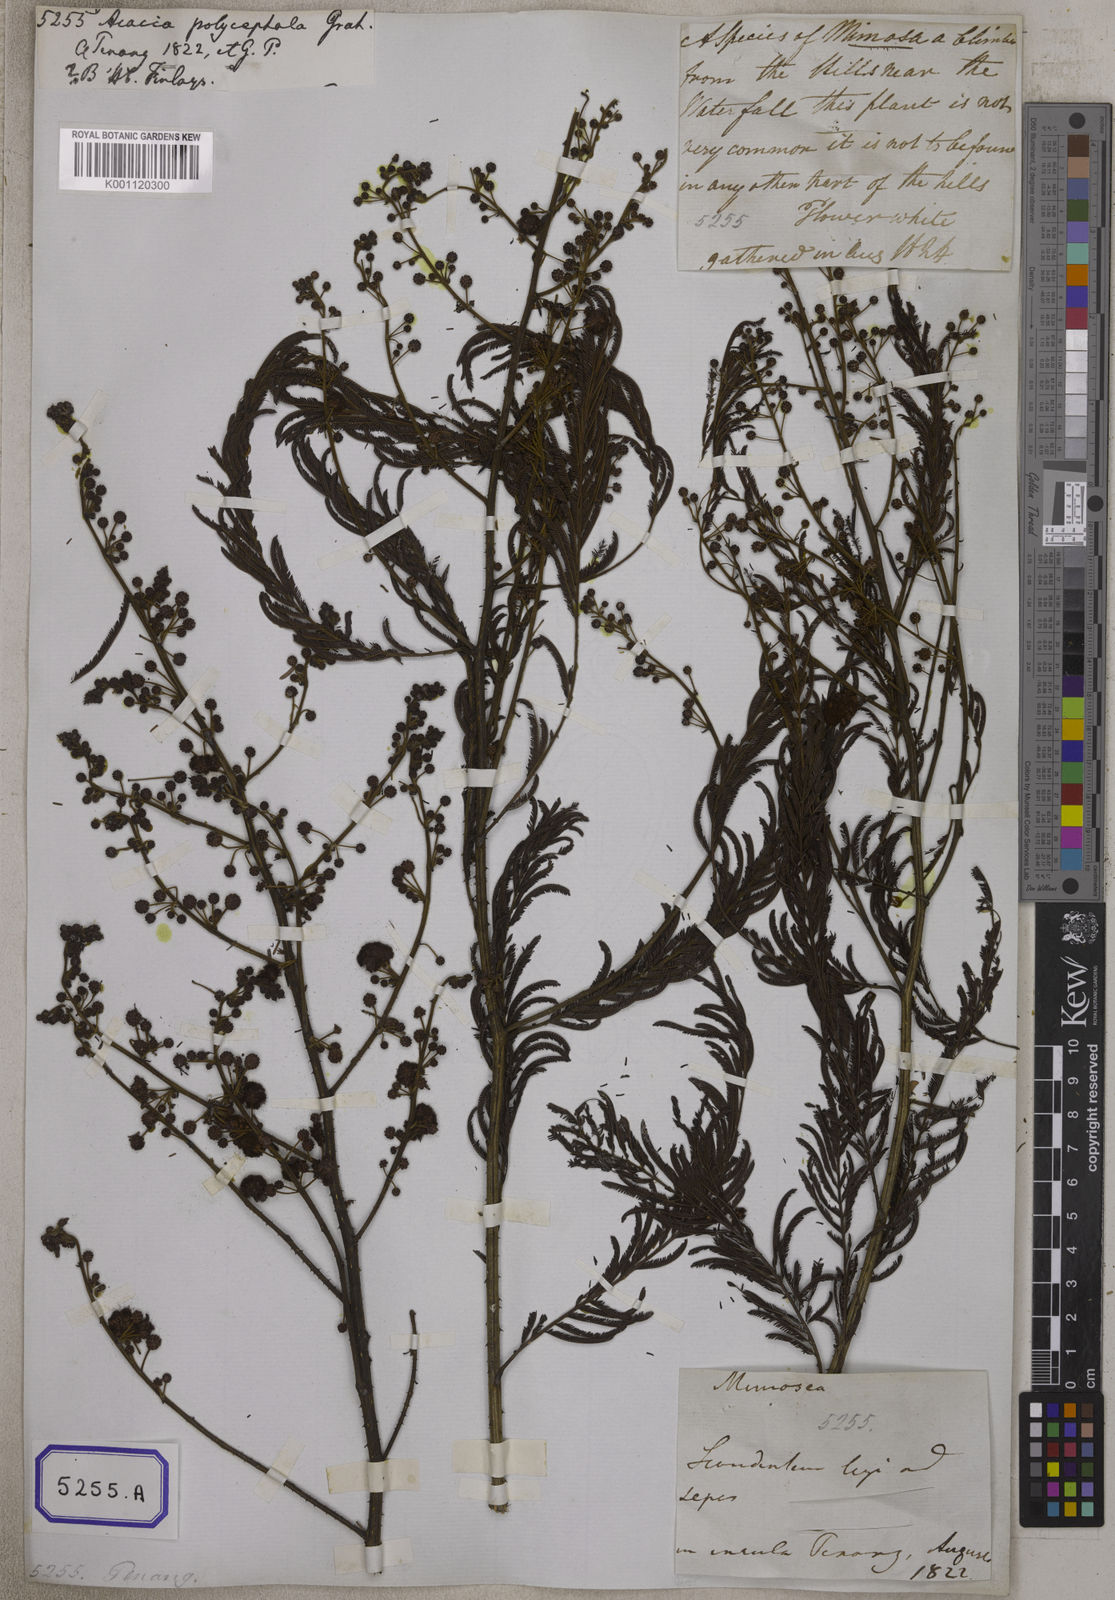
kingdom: Plantae
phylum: Tracheophyta
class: Magnoliopsida
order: Fabales
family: Fabaceae
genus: Senegalia
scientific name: Senegalia pluricapitata
